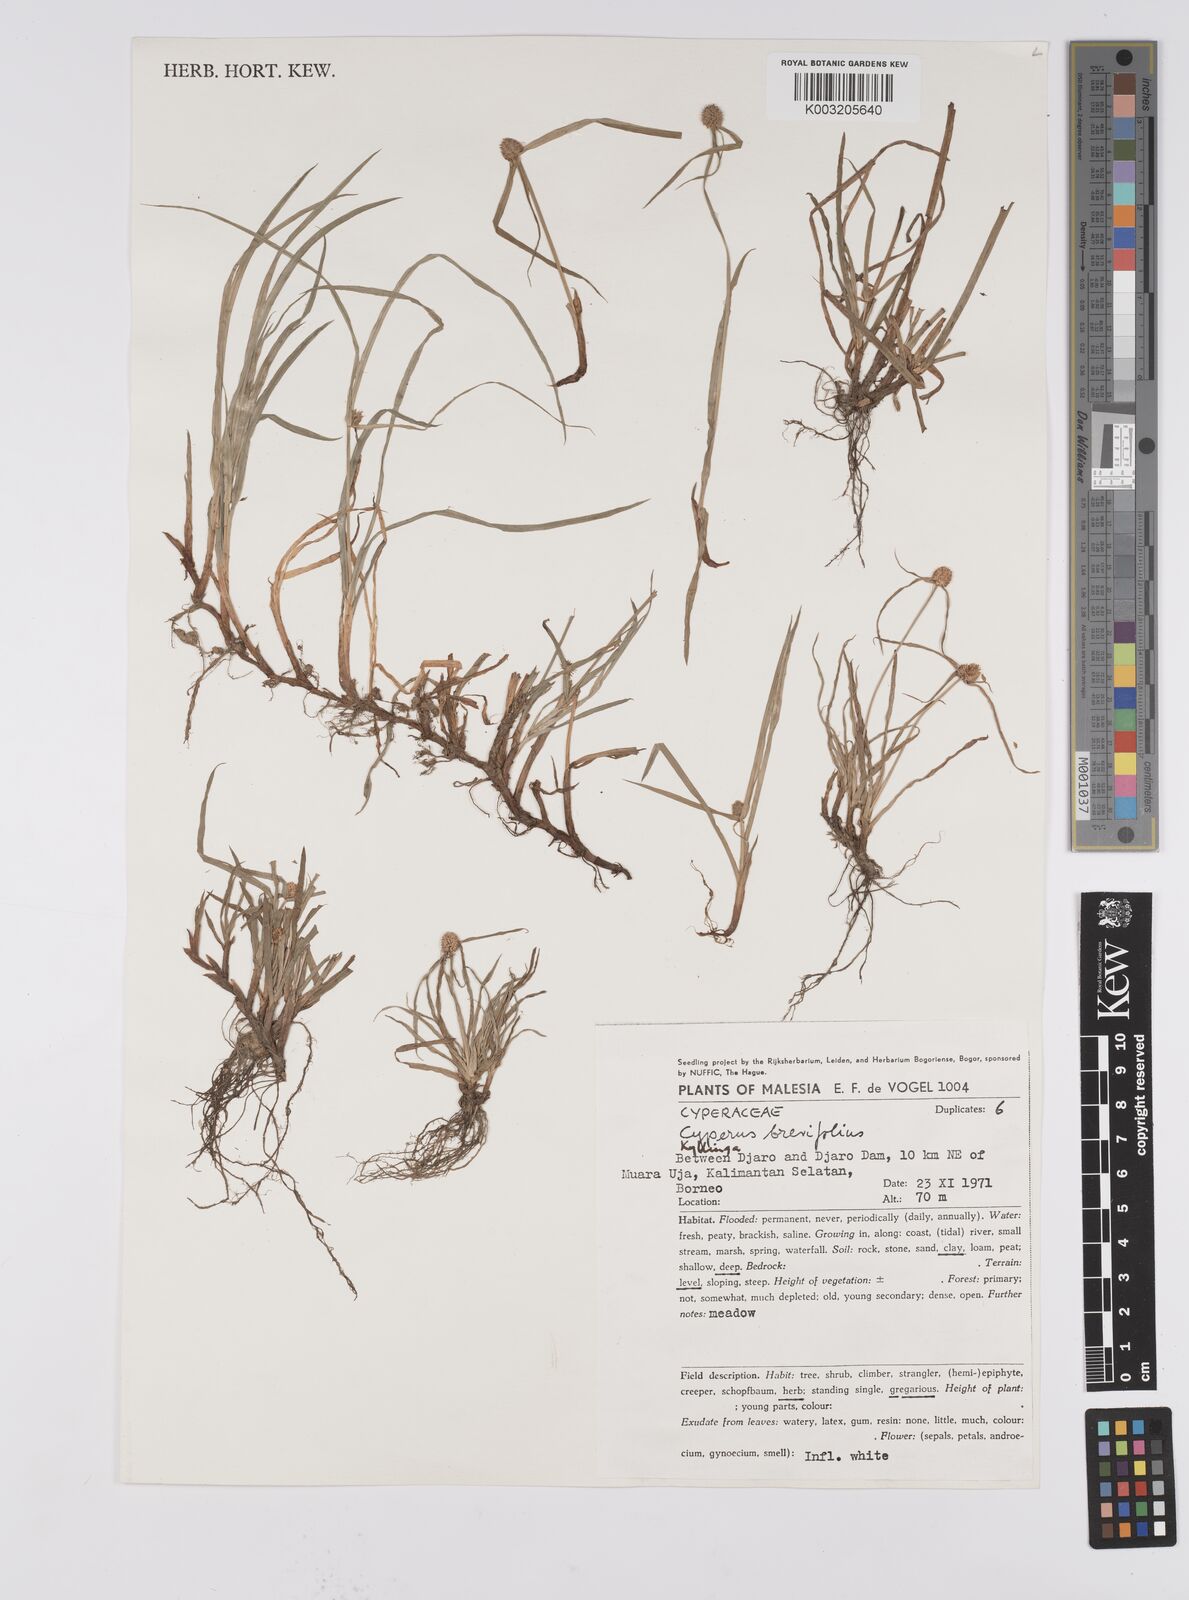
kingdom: Plantae
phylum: Tracheophyta
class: Liliopsida
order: Poales
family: Cyperaceae
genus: Cyperus
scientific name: Cyperus brevifolius
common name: Globe kyllinga
